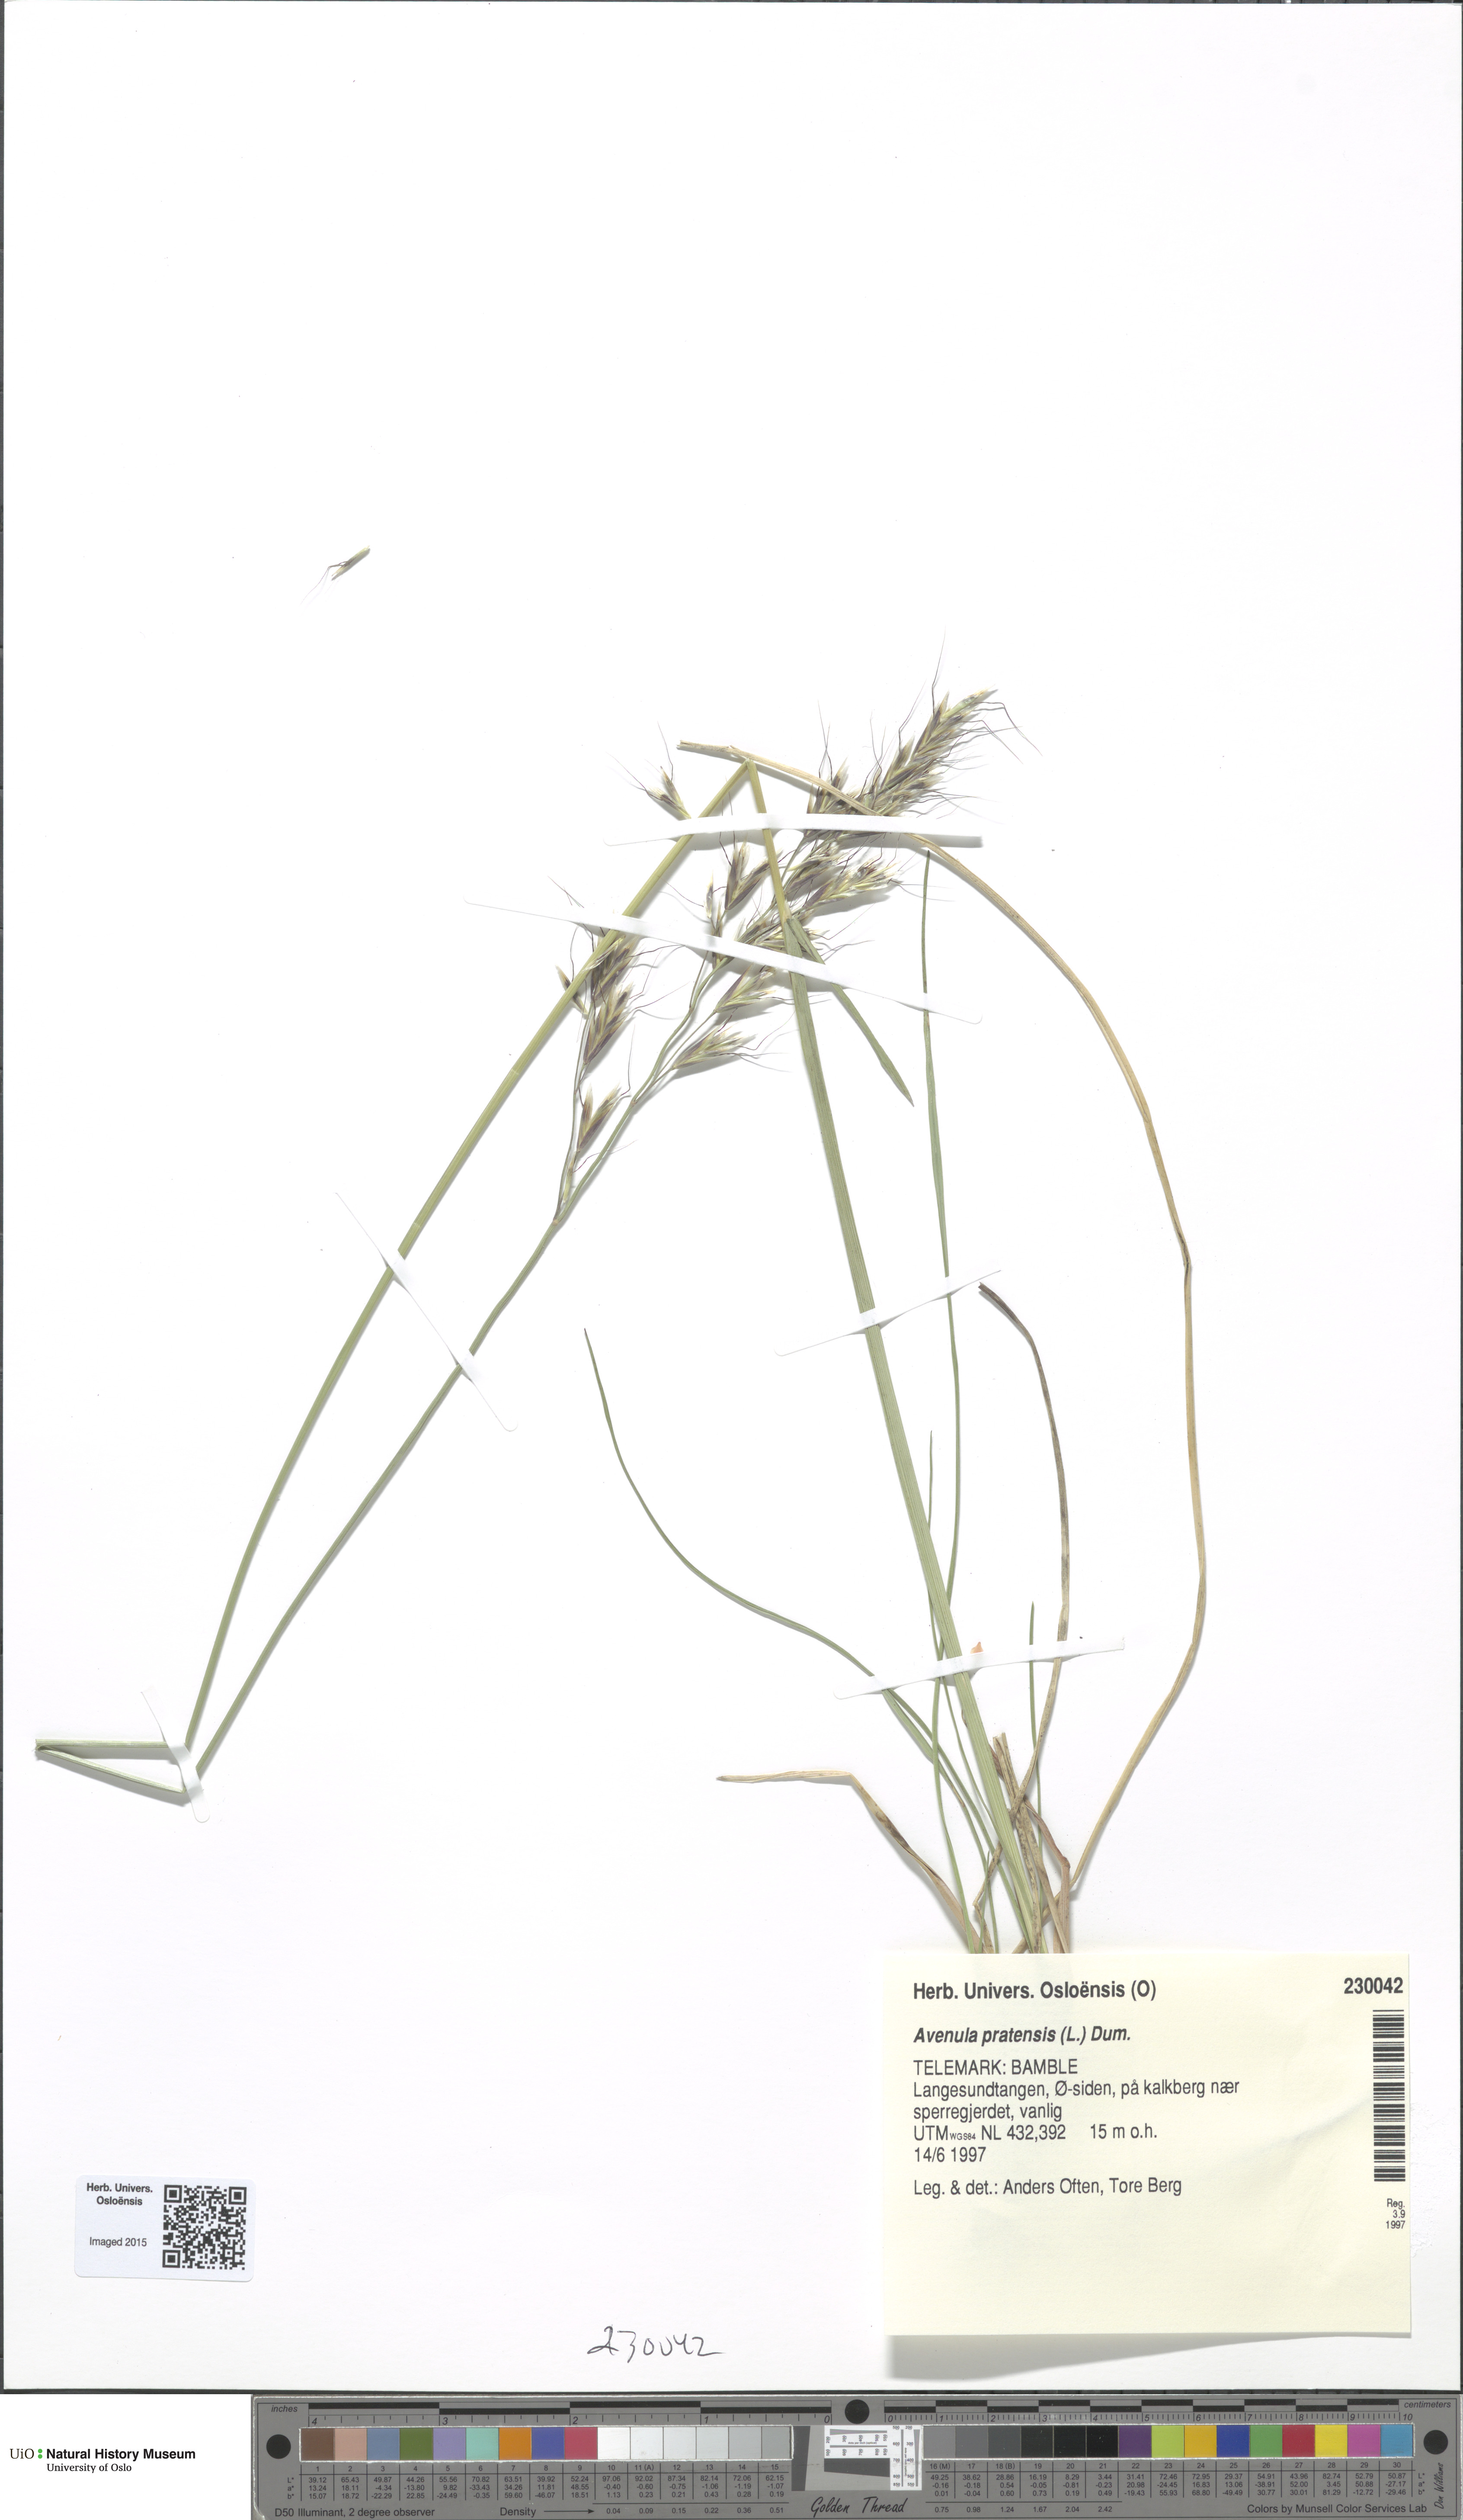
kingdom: Plantae
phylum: Tracheophyta
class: Liliopsida
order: Poales
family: Poaceae
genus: Helictochloa
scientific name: Helictochloa pratensis
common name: Meadow oat grass
